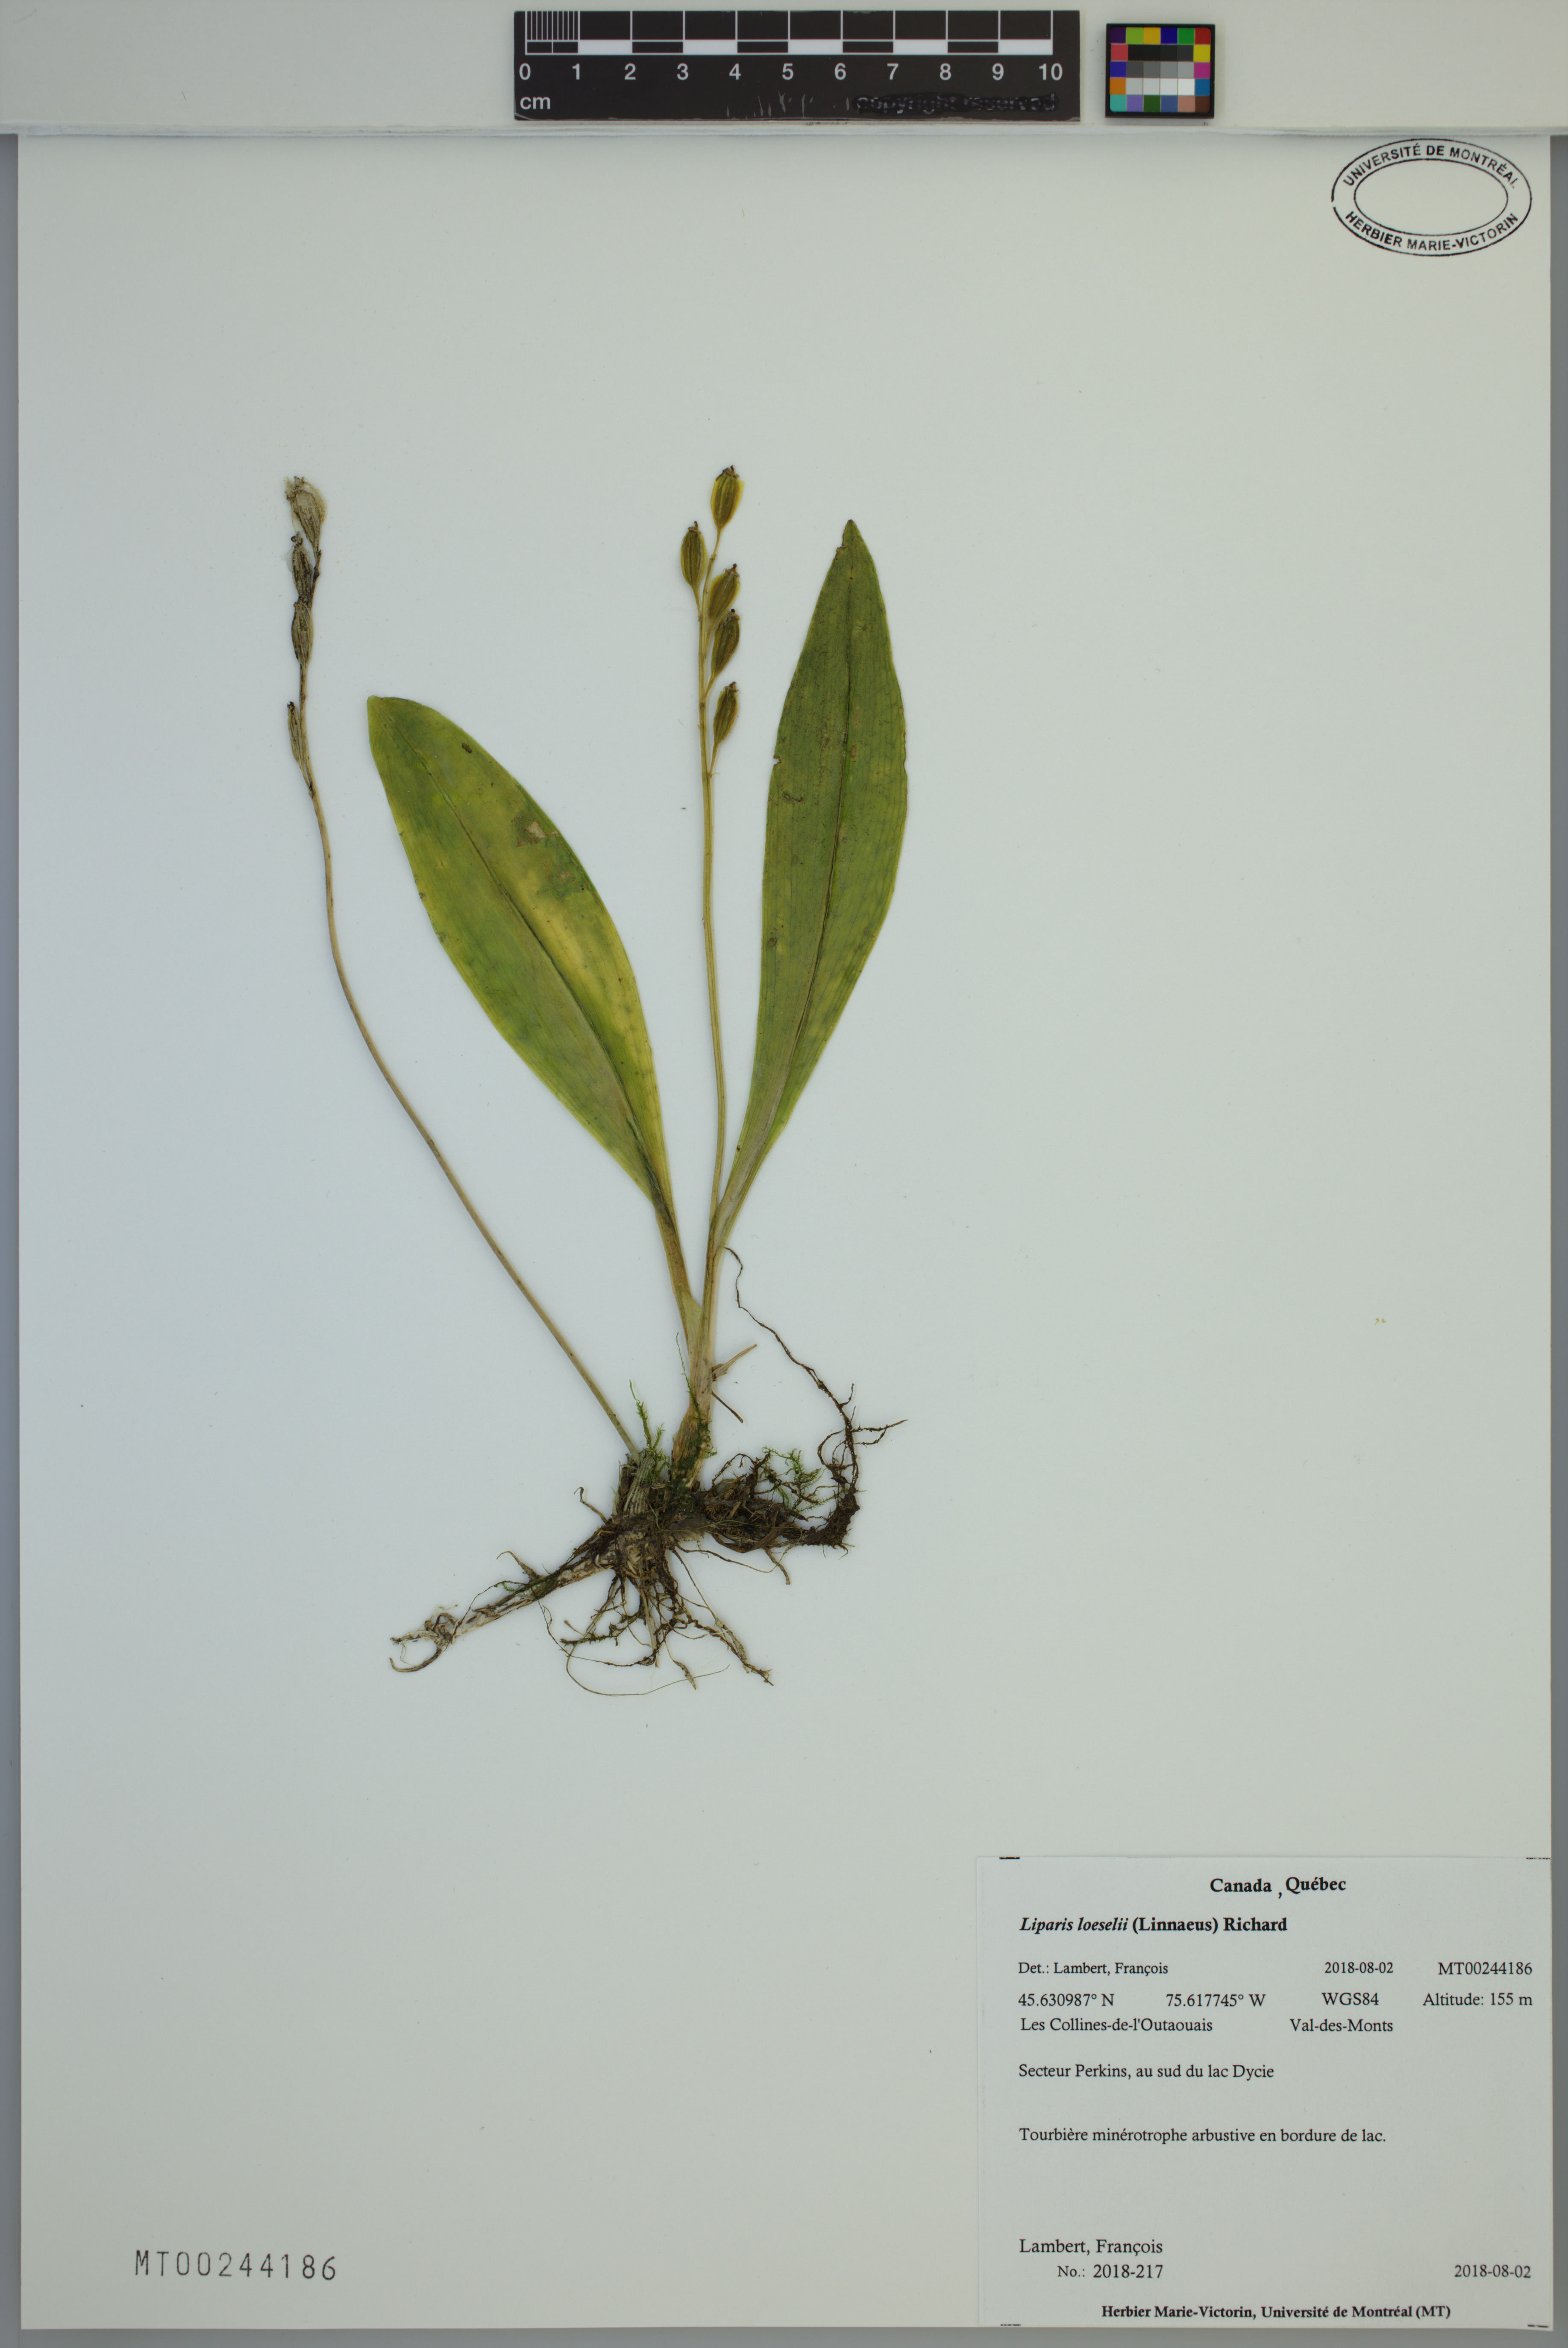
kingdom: Animalia
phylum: Arthropoda
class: Insecta
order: Coleoptera
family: Curculionidae
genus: Liparis
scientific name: Liparis loeselii
